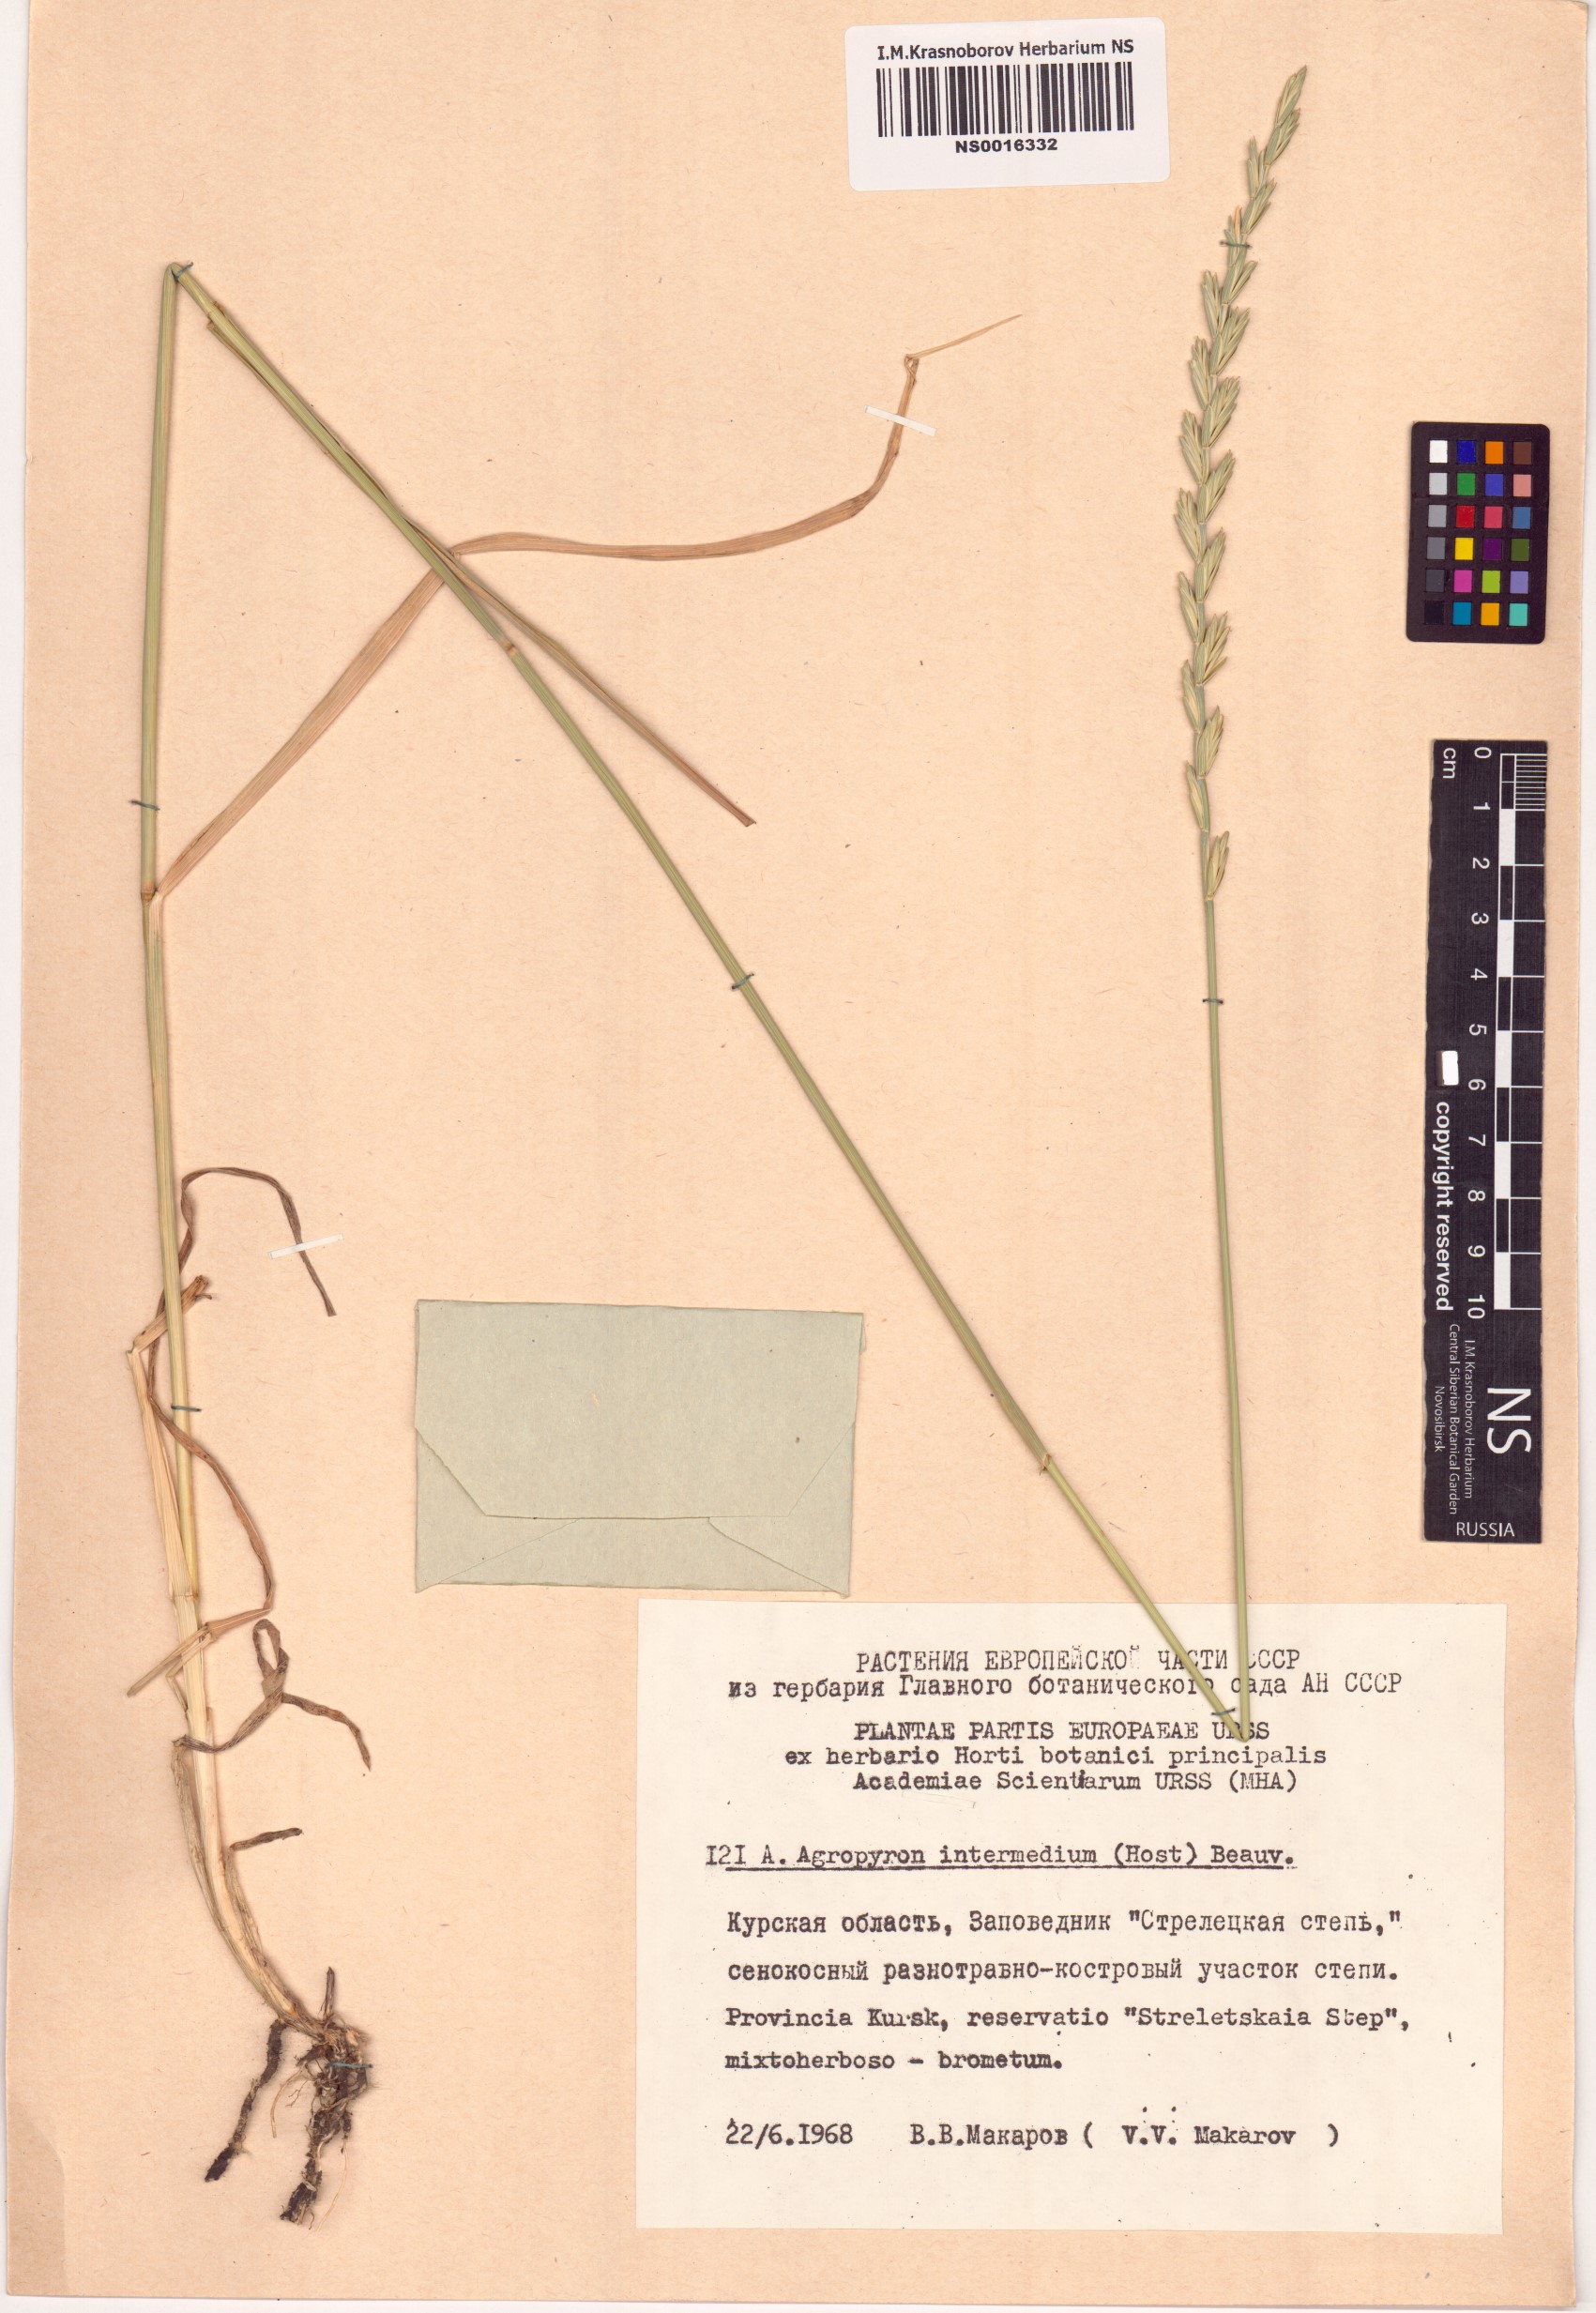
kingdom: Plantae
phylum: Tracheophyta
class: Liliopsida
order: Poales
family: Poaceae
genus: Thinopyrum
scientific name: Thinopyrum intermedium
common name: Intermediate wheatgrass
